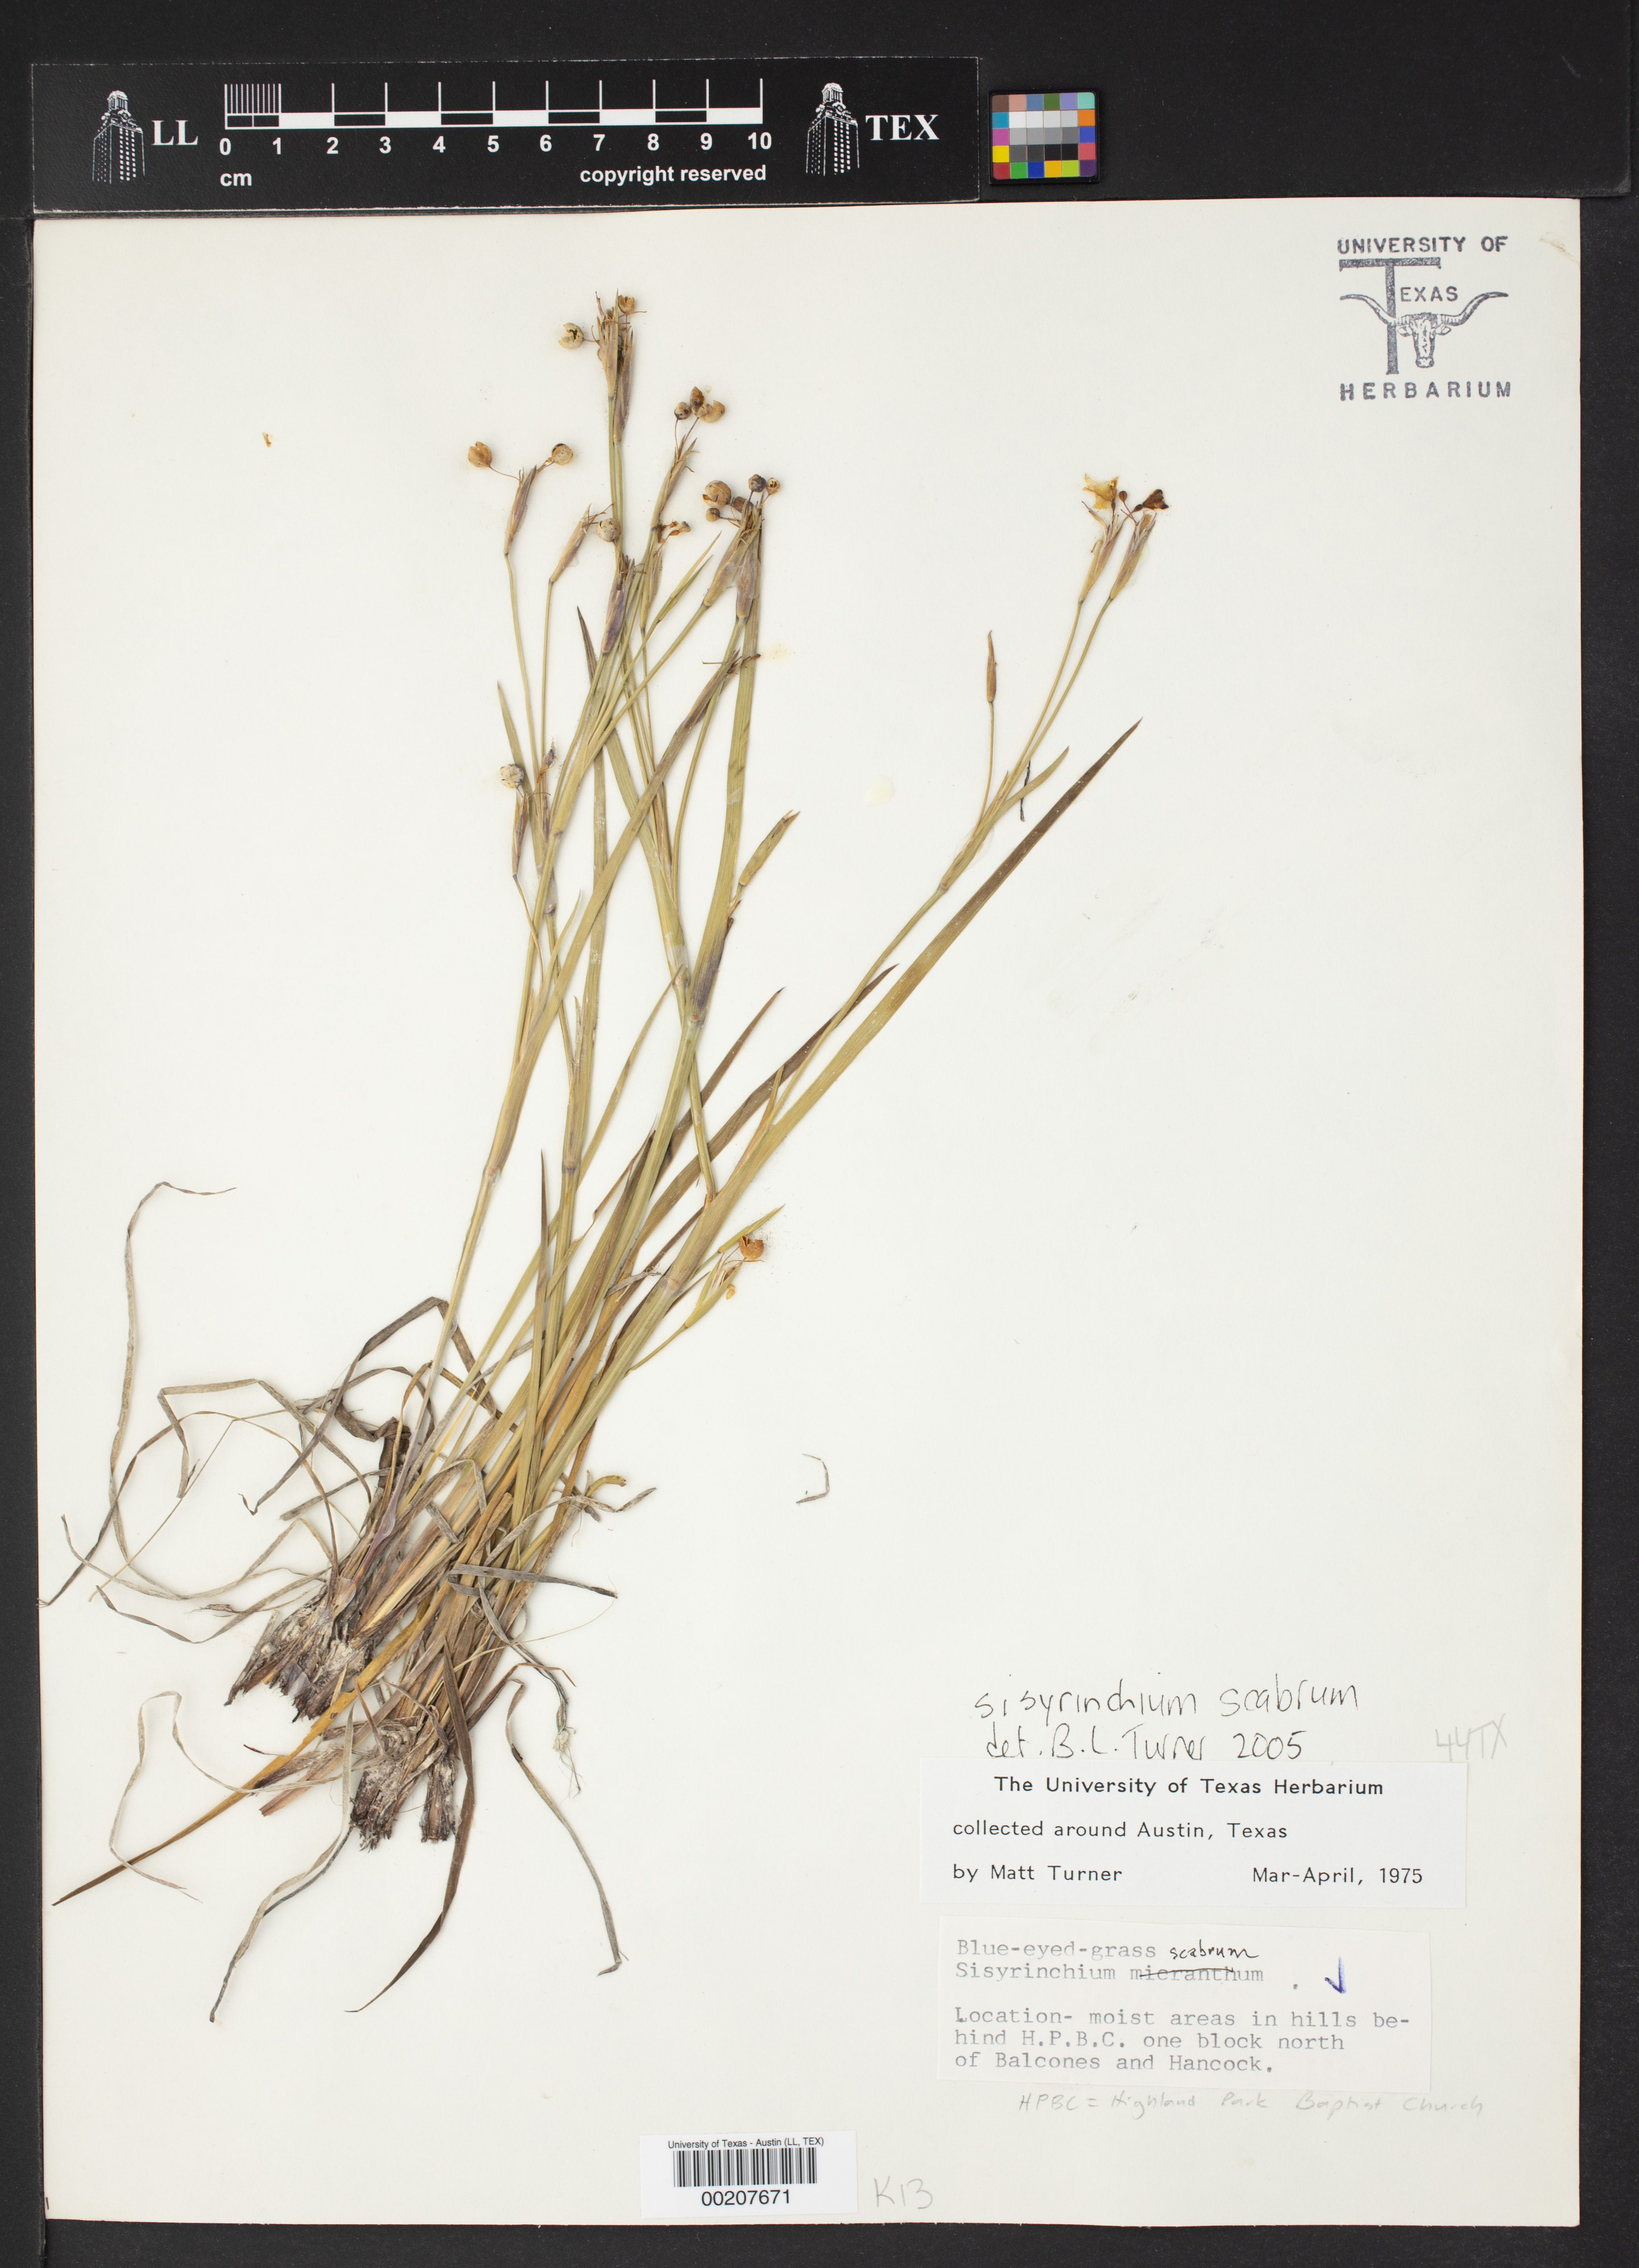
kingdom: Plantae
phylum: Tracheophyta
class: Liliopsida
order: Asparagales
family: Iridaceae
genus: Sisyrinchium
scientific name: Sisyrinchium scabrum
